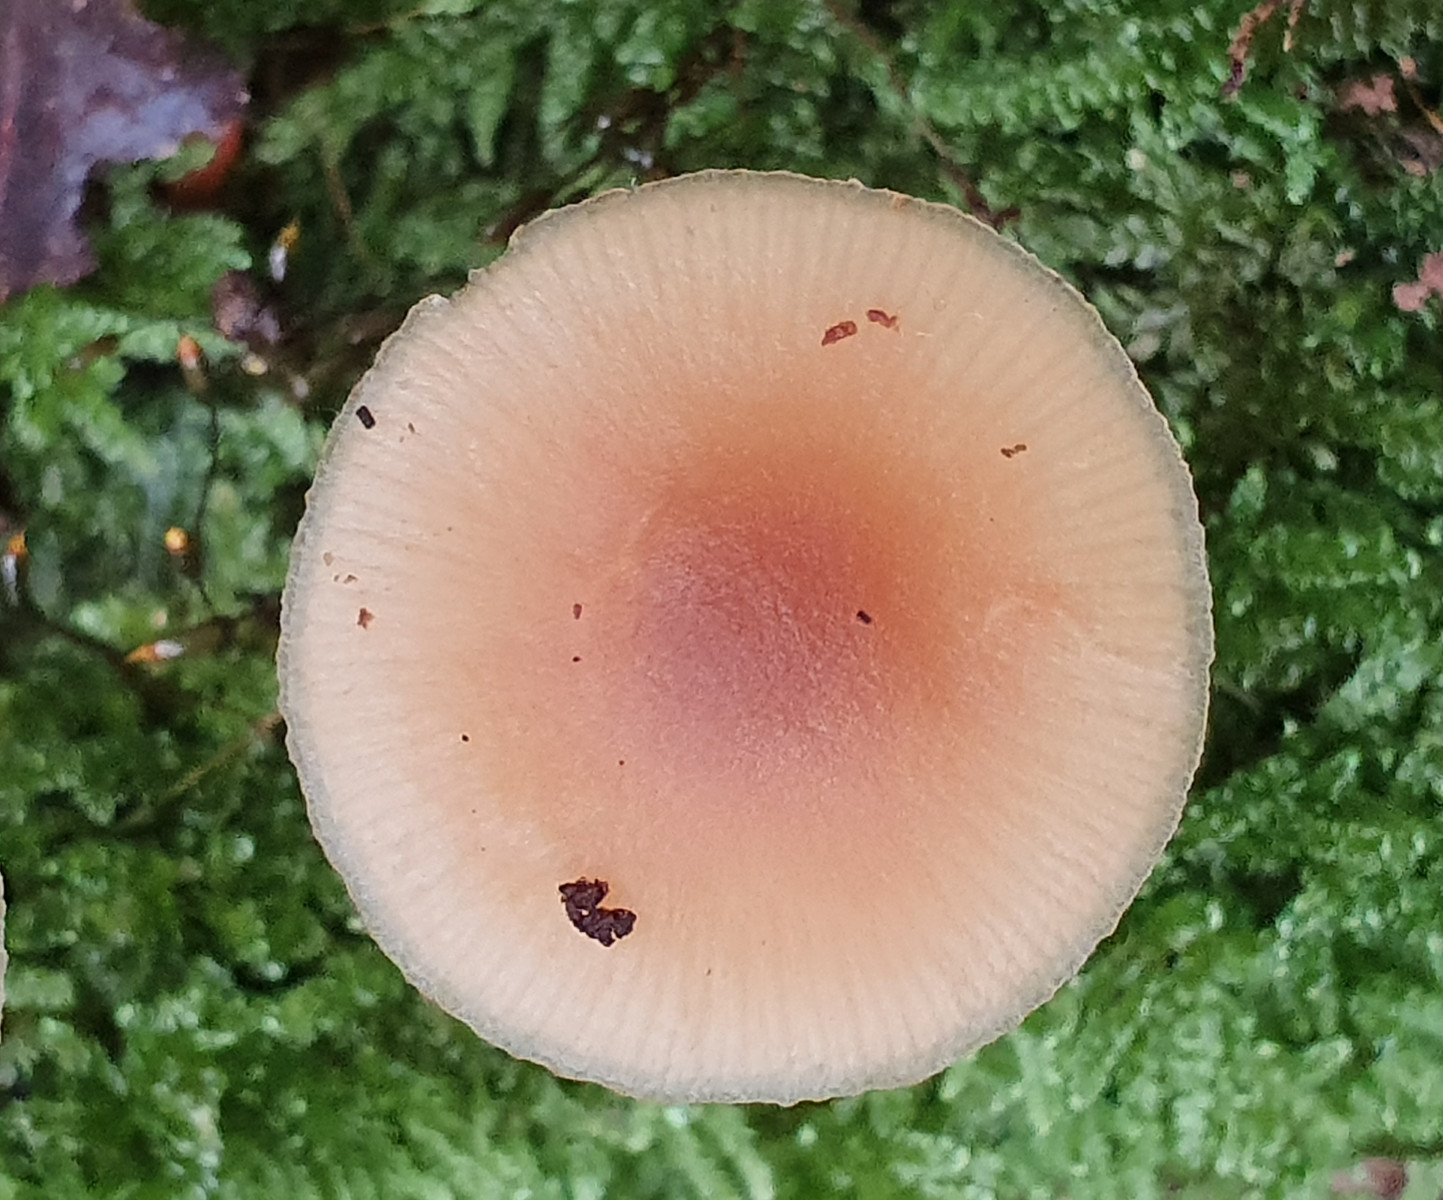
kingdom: Fungi
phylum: Basidiomycota
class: Agaricomycetes
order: Agaricales
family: Hymenogastraceae
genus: Galerina
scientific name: Galerina marginata
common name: randbæltet hjelmhat
